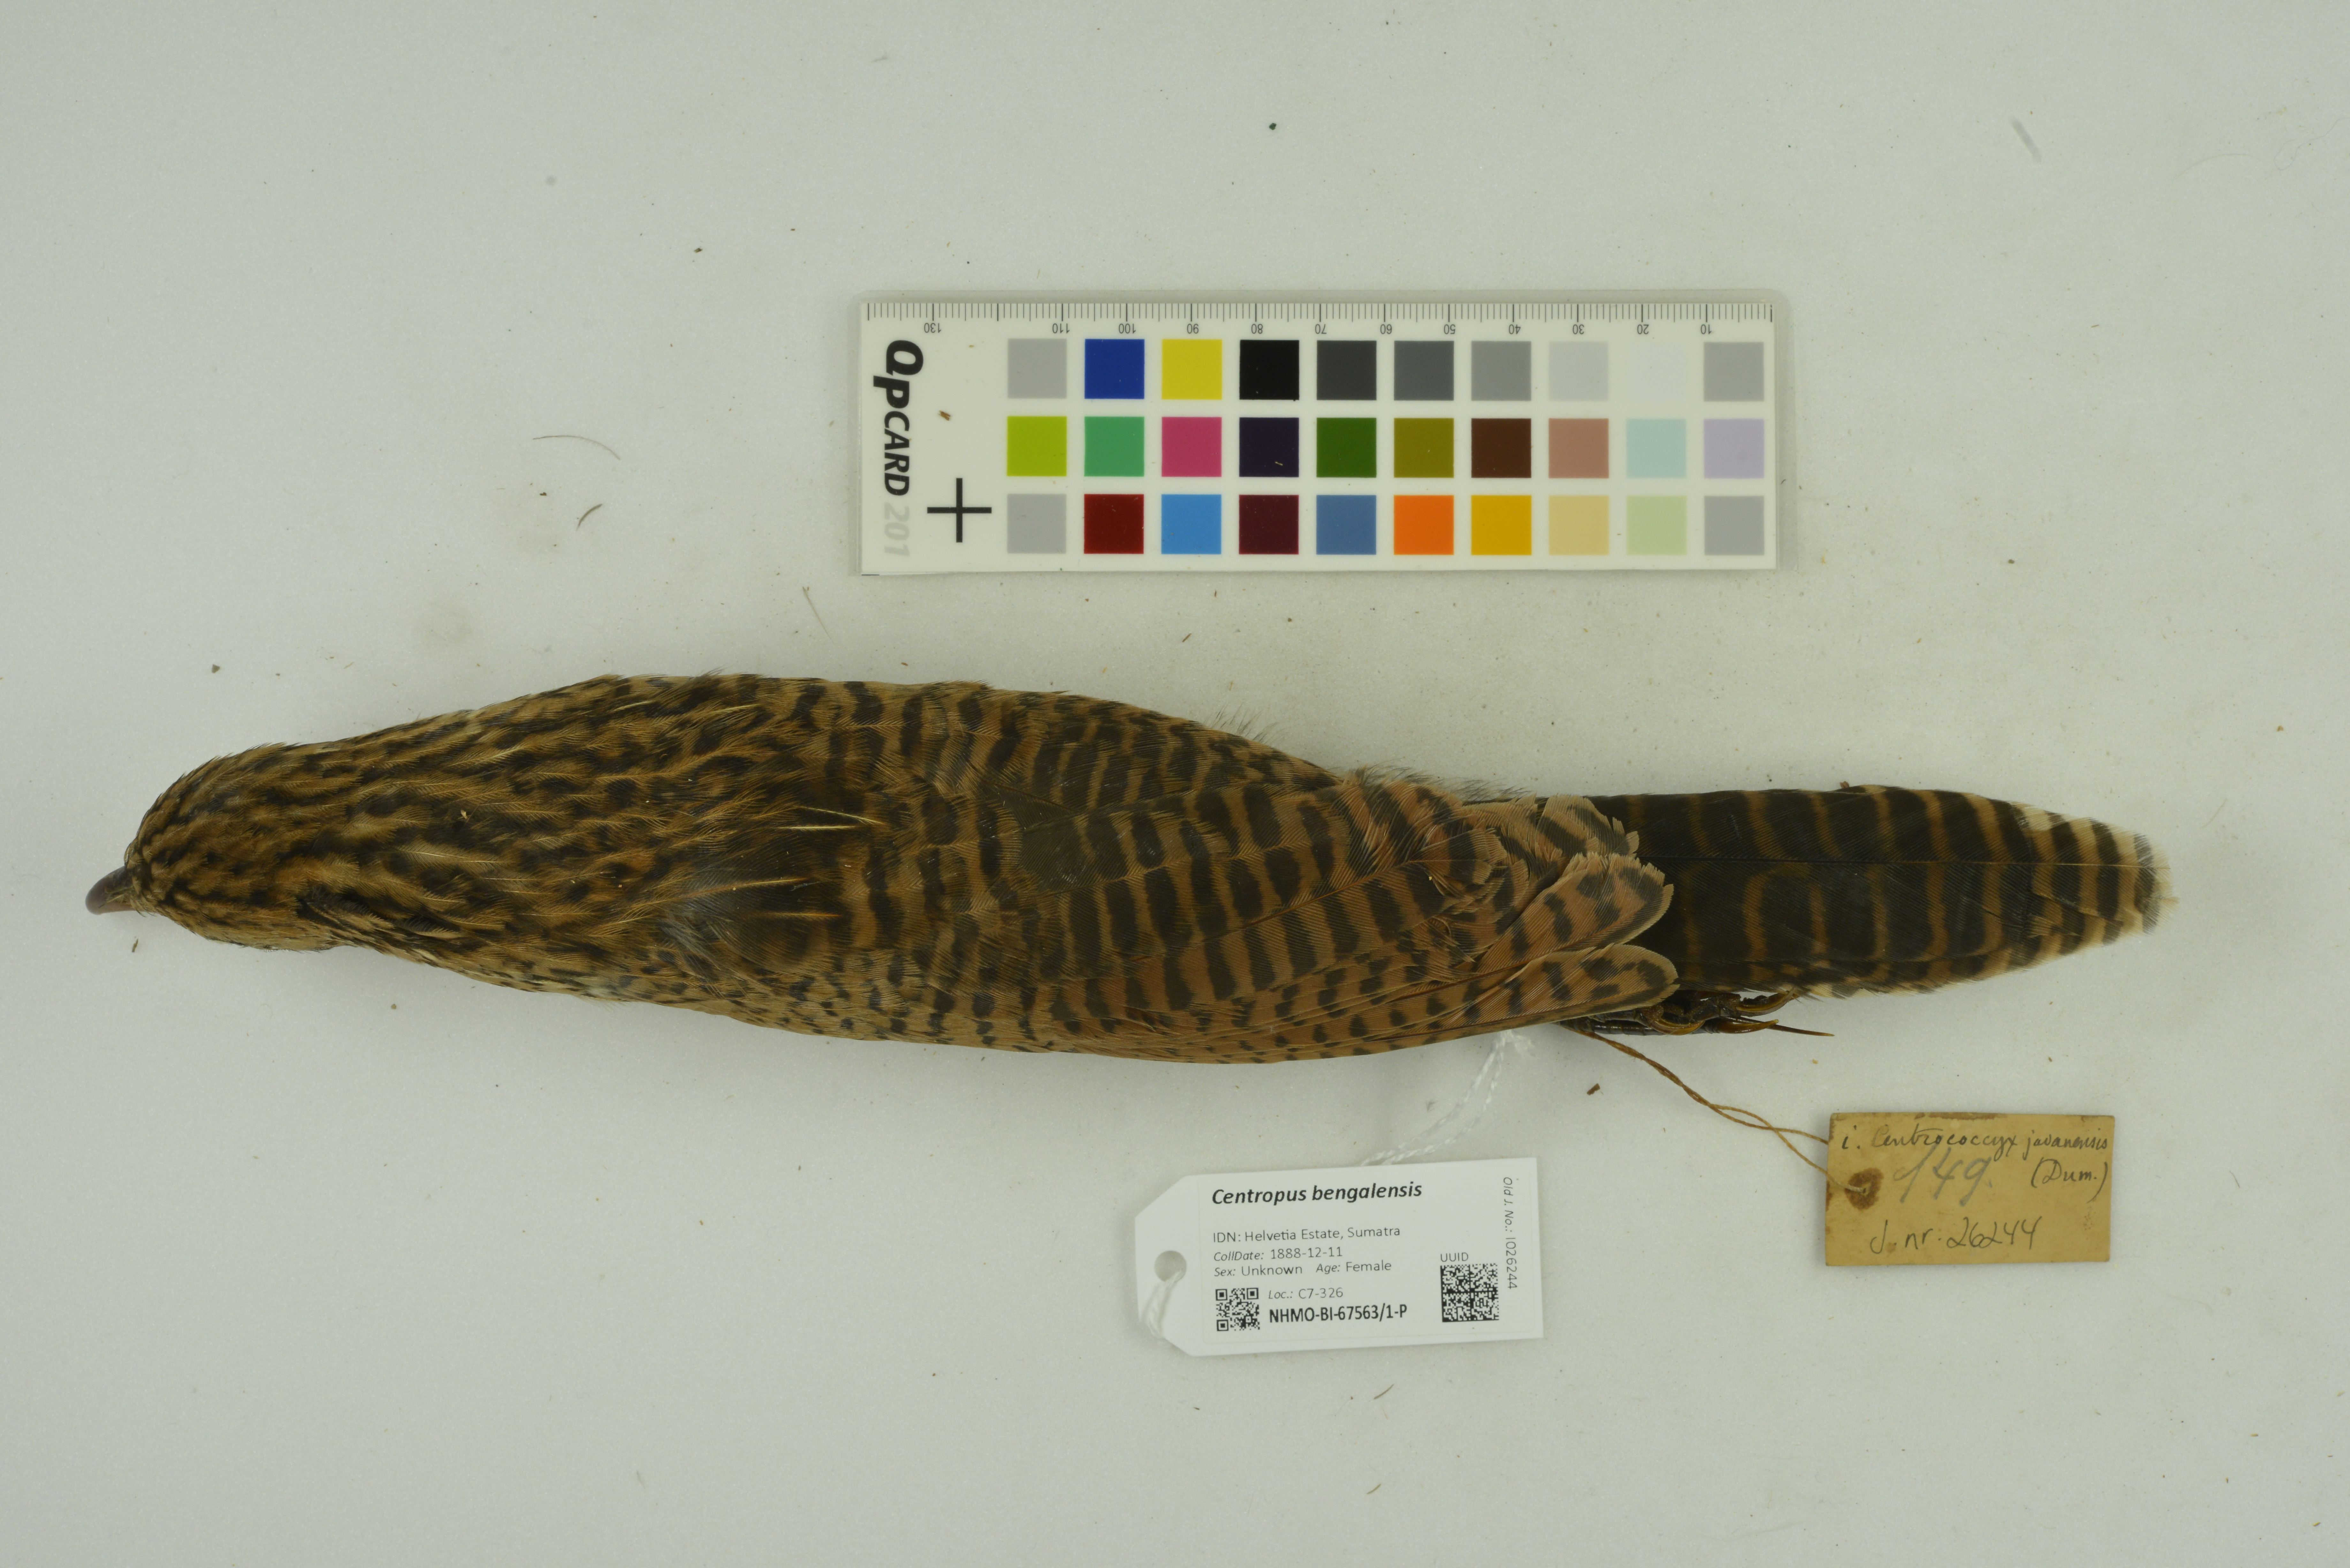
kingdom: Animalia
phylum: Chordata
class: Aves
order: Cuculiformes
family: Cuculidae
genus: Centropus
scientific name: Centropus bengalensis
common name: Lesser coucal
